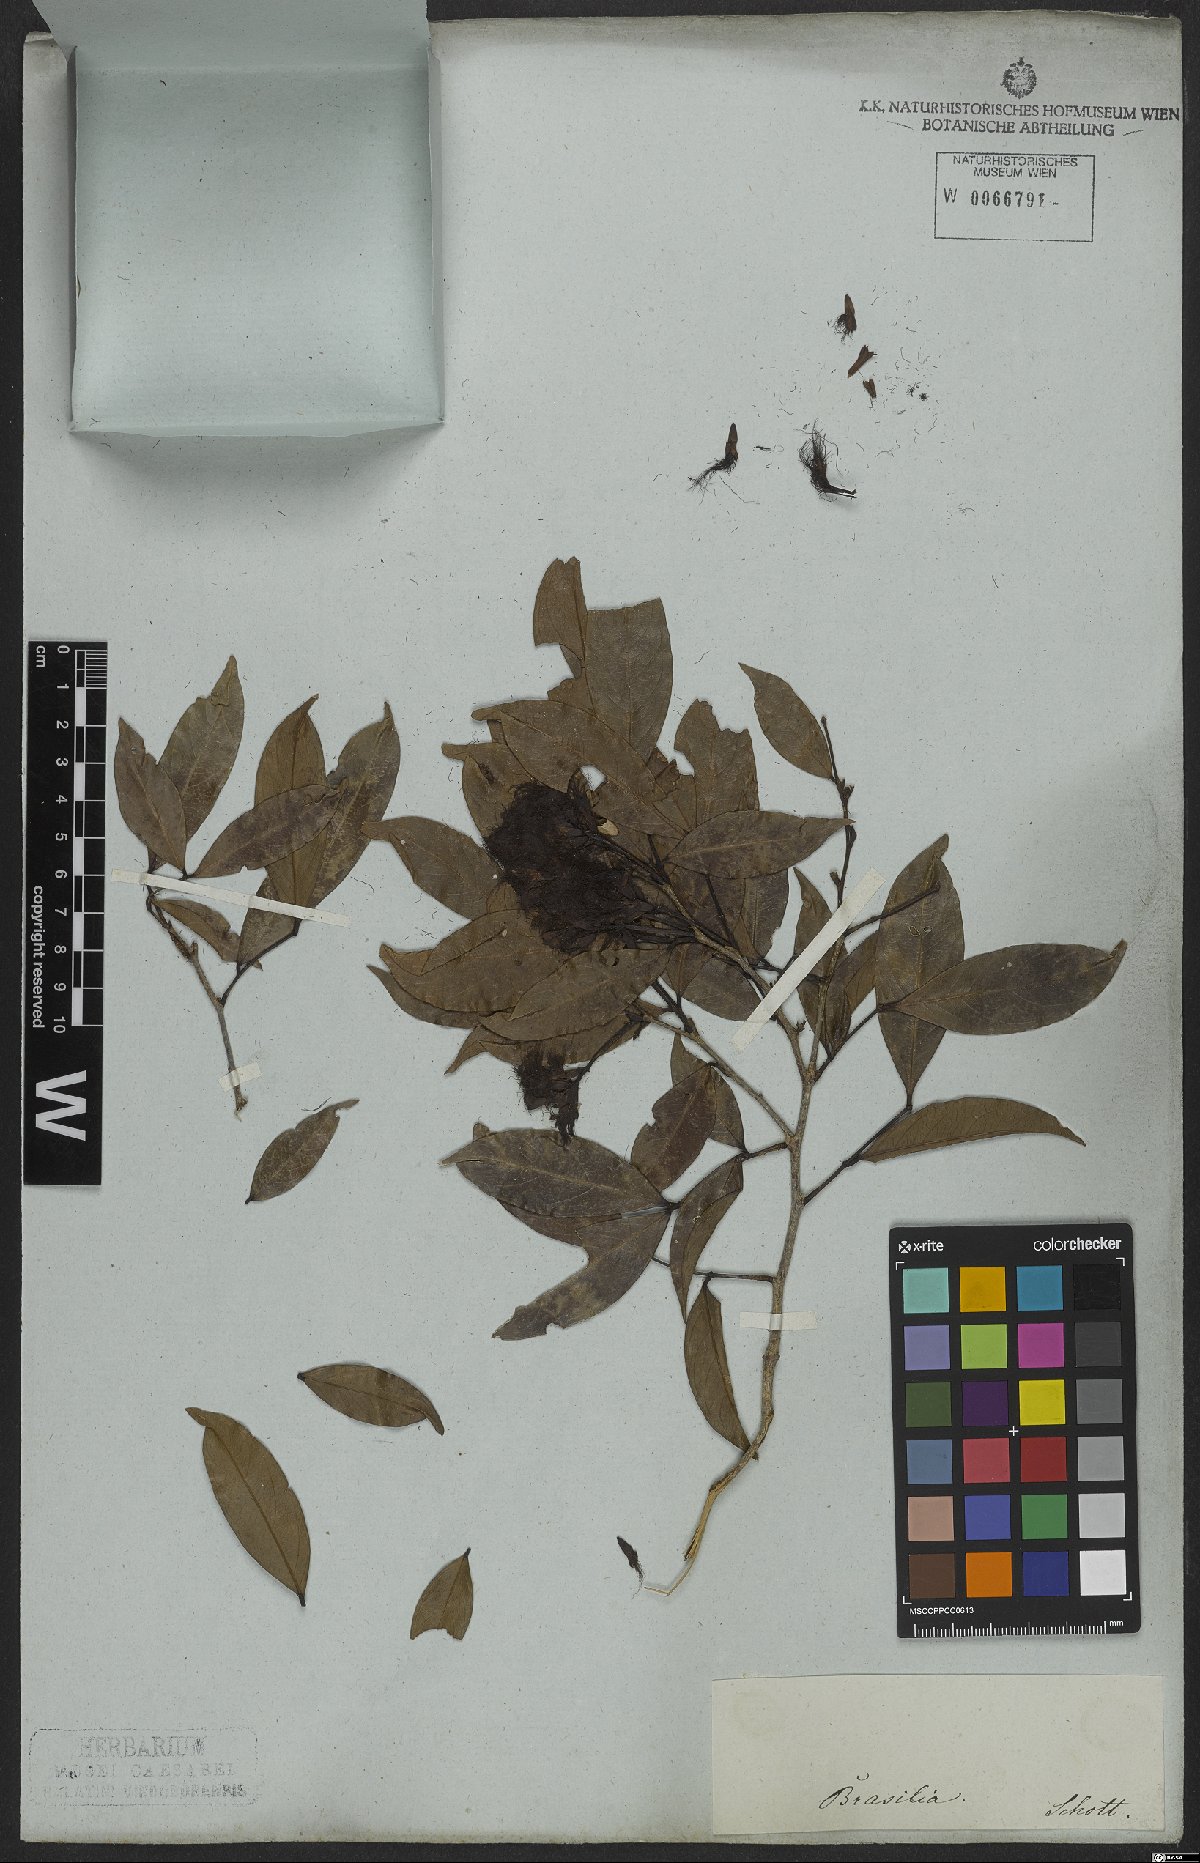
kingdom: Plantae
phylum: Tracheophyta
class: Magnoliopsida
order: Fabales
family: Fabaceae
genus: Inga
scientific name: Inga
